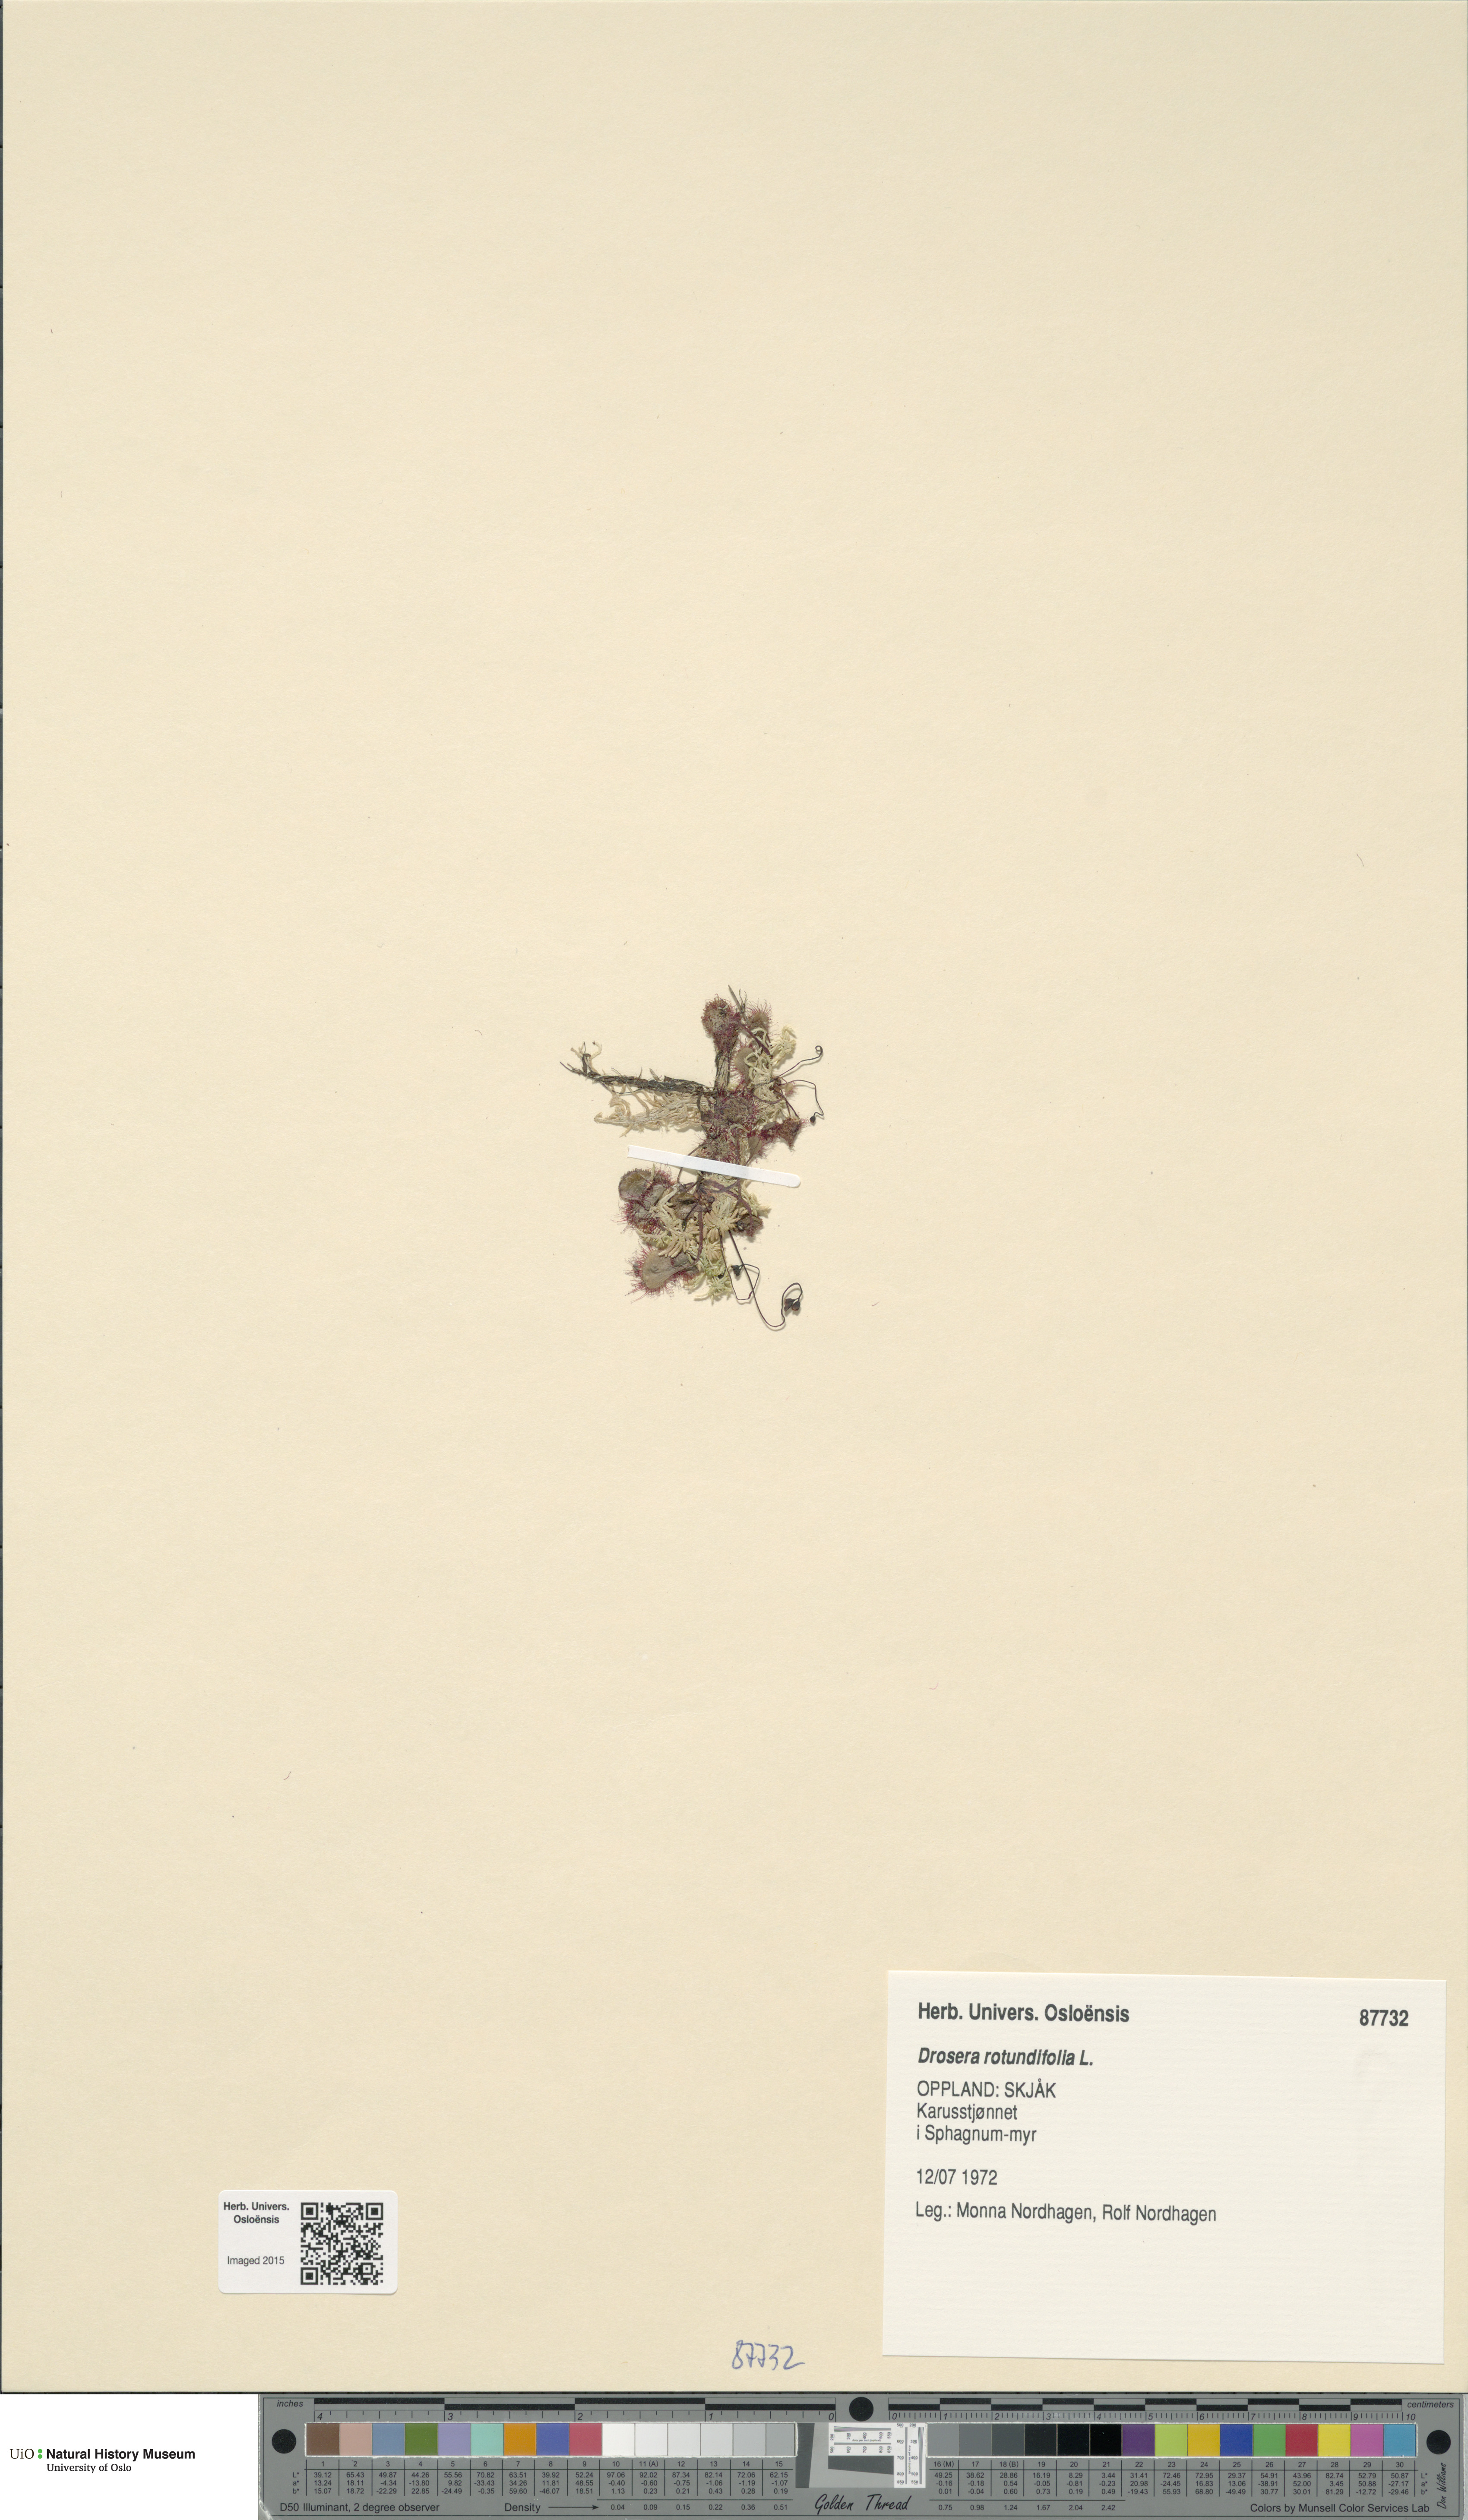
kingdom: Plantae
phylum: Tracheophyta
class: Magnoliopsida
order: Caryophyllales
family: Droseraceae
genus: Drosera
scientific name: Drosera rotundifolia
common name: Round-leaved sundew
